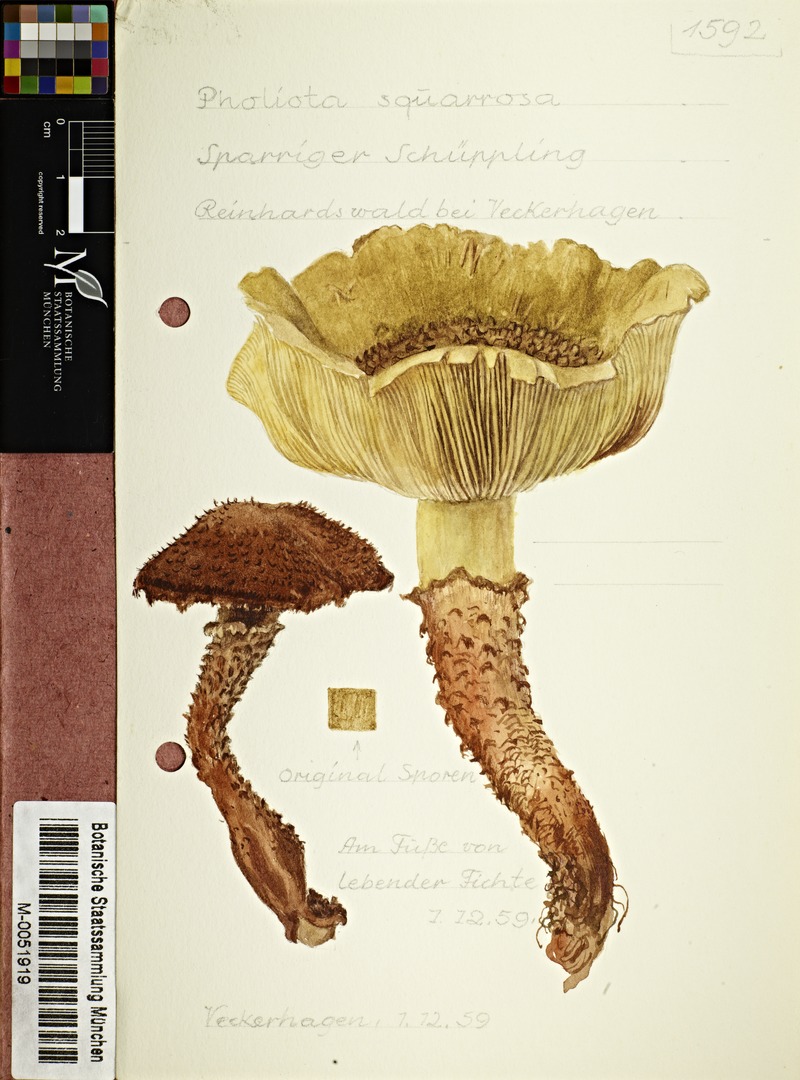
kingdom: Fungi
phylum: Basidiomycota
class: Agaricomycetes
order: Agaricales
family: Strophariaceae
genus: Pholiota
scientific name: Pholiota squarrosa
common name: Shaggy pholiota
